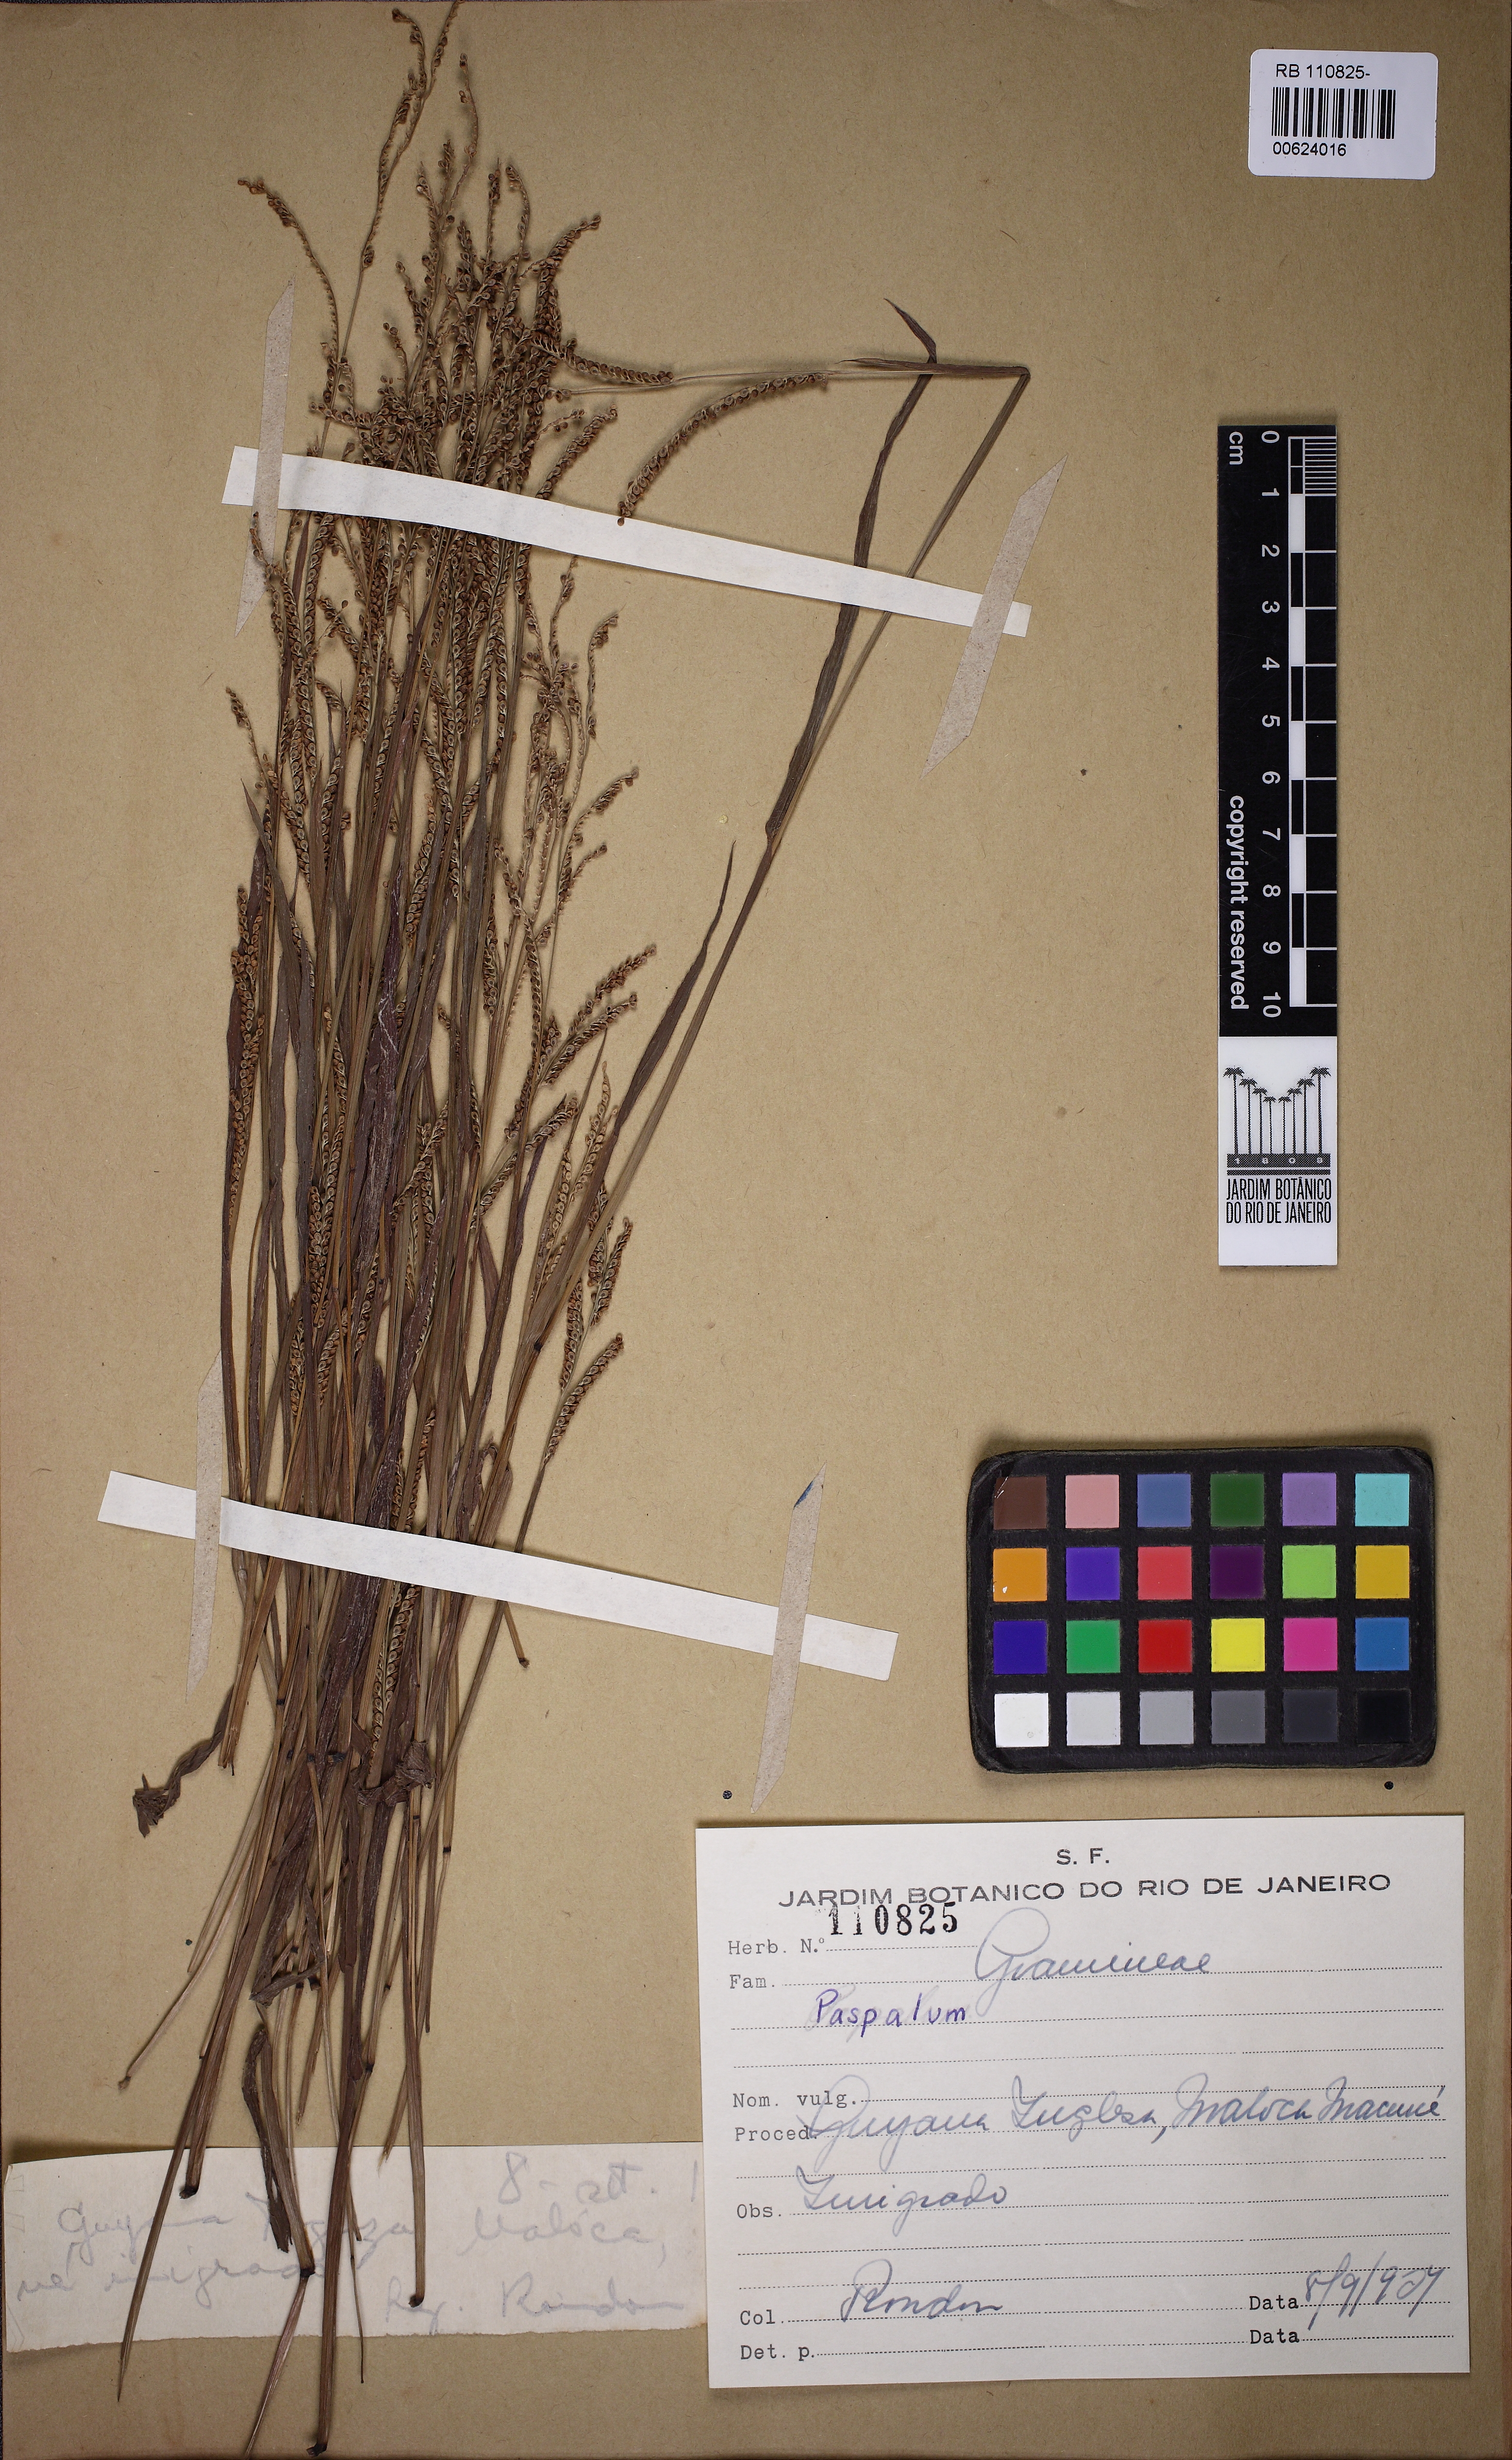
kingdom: Plantae
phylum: Tracheophyta
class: Liliopsida
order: Poales
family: Poaceae
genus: Paspalum
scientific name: Paspalum
